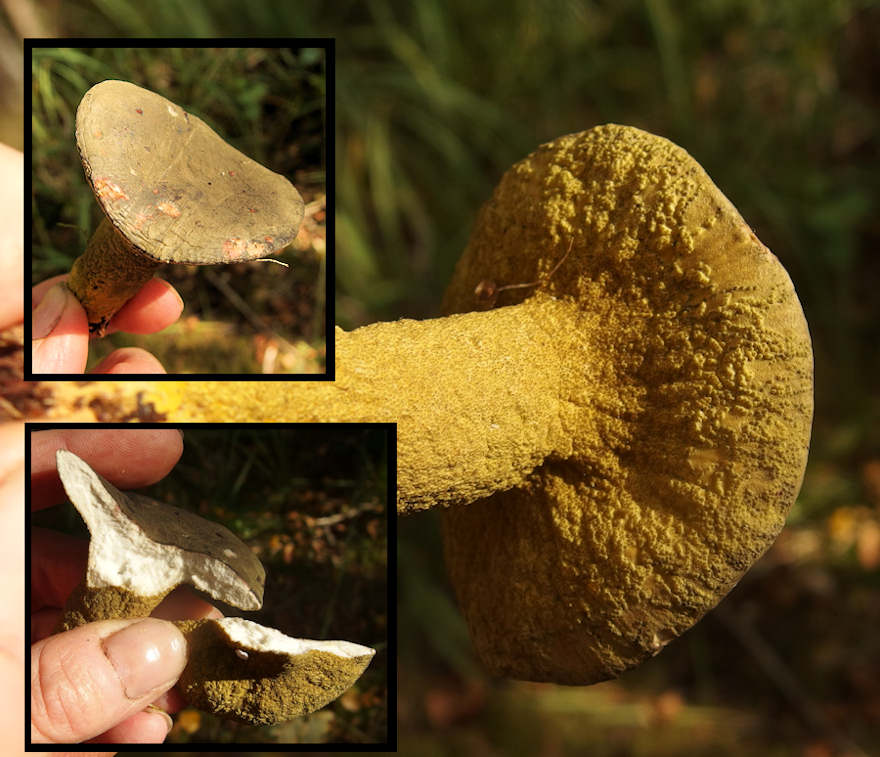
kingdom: Fungi
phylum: Ascomycota
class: Sordariomycetes
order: Hypocreales
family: Hypocreaceae
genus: Hypomyces
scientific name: Hypomyces luteovirens
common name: gulgrøn snylteskorpe
